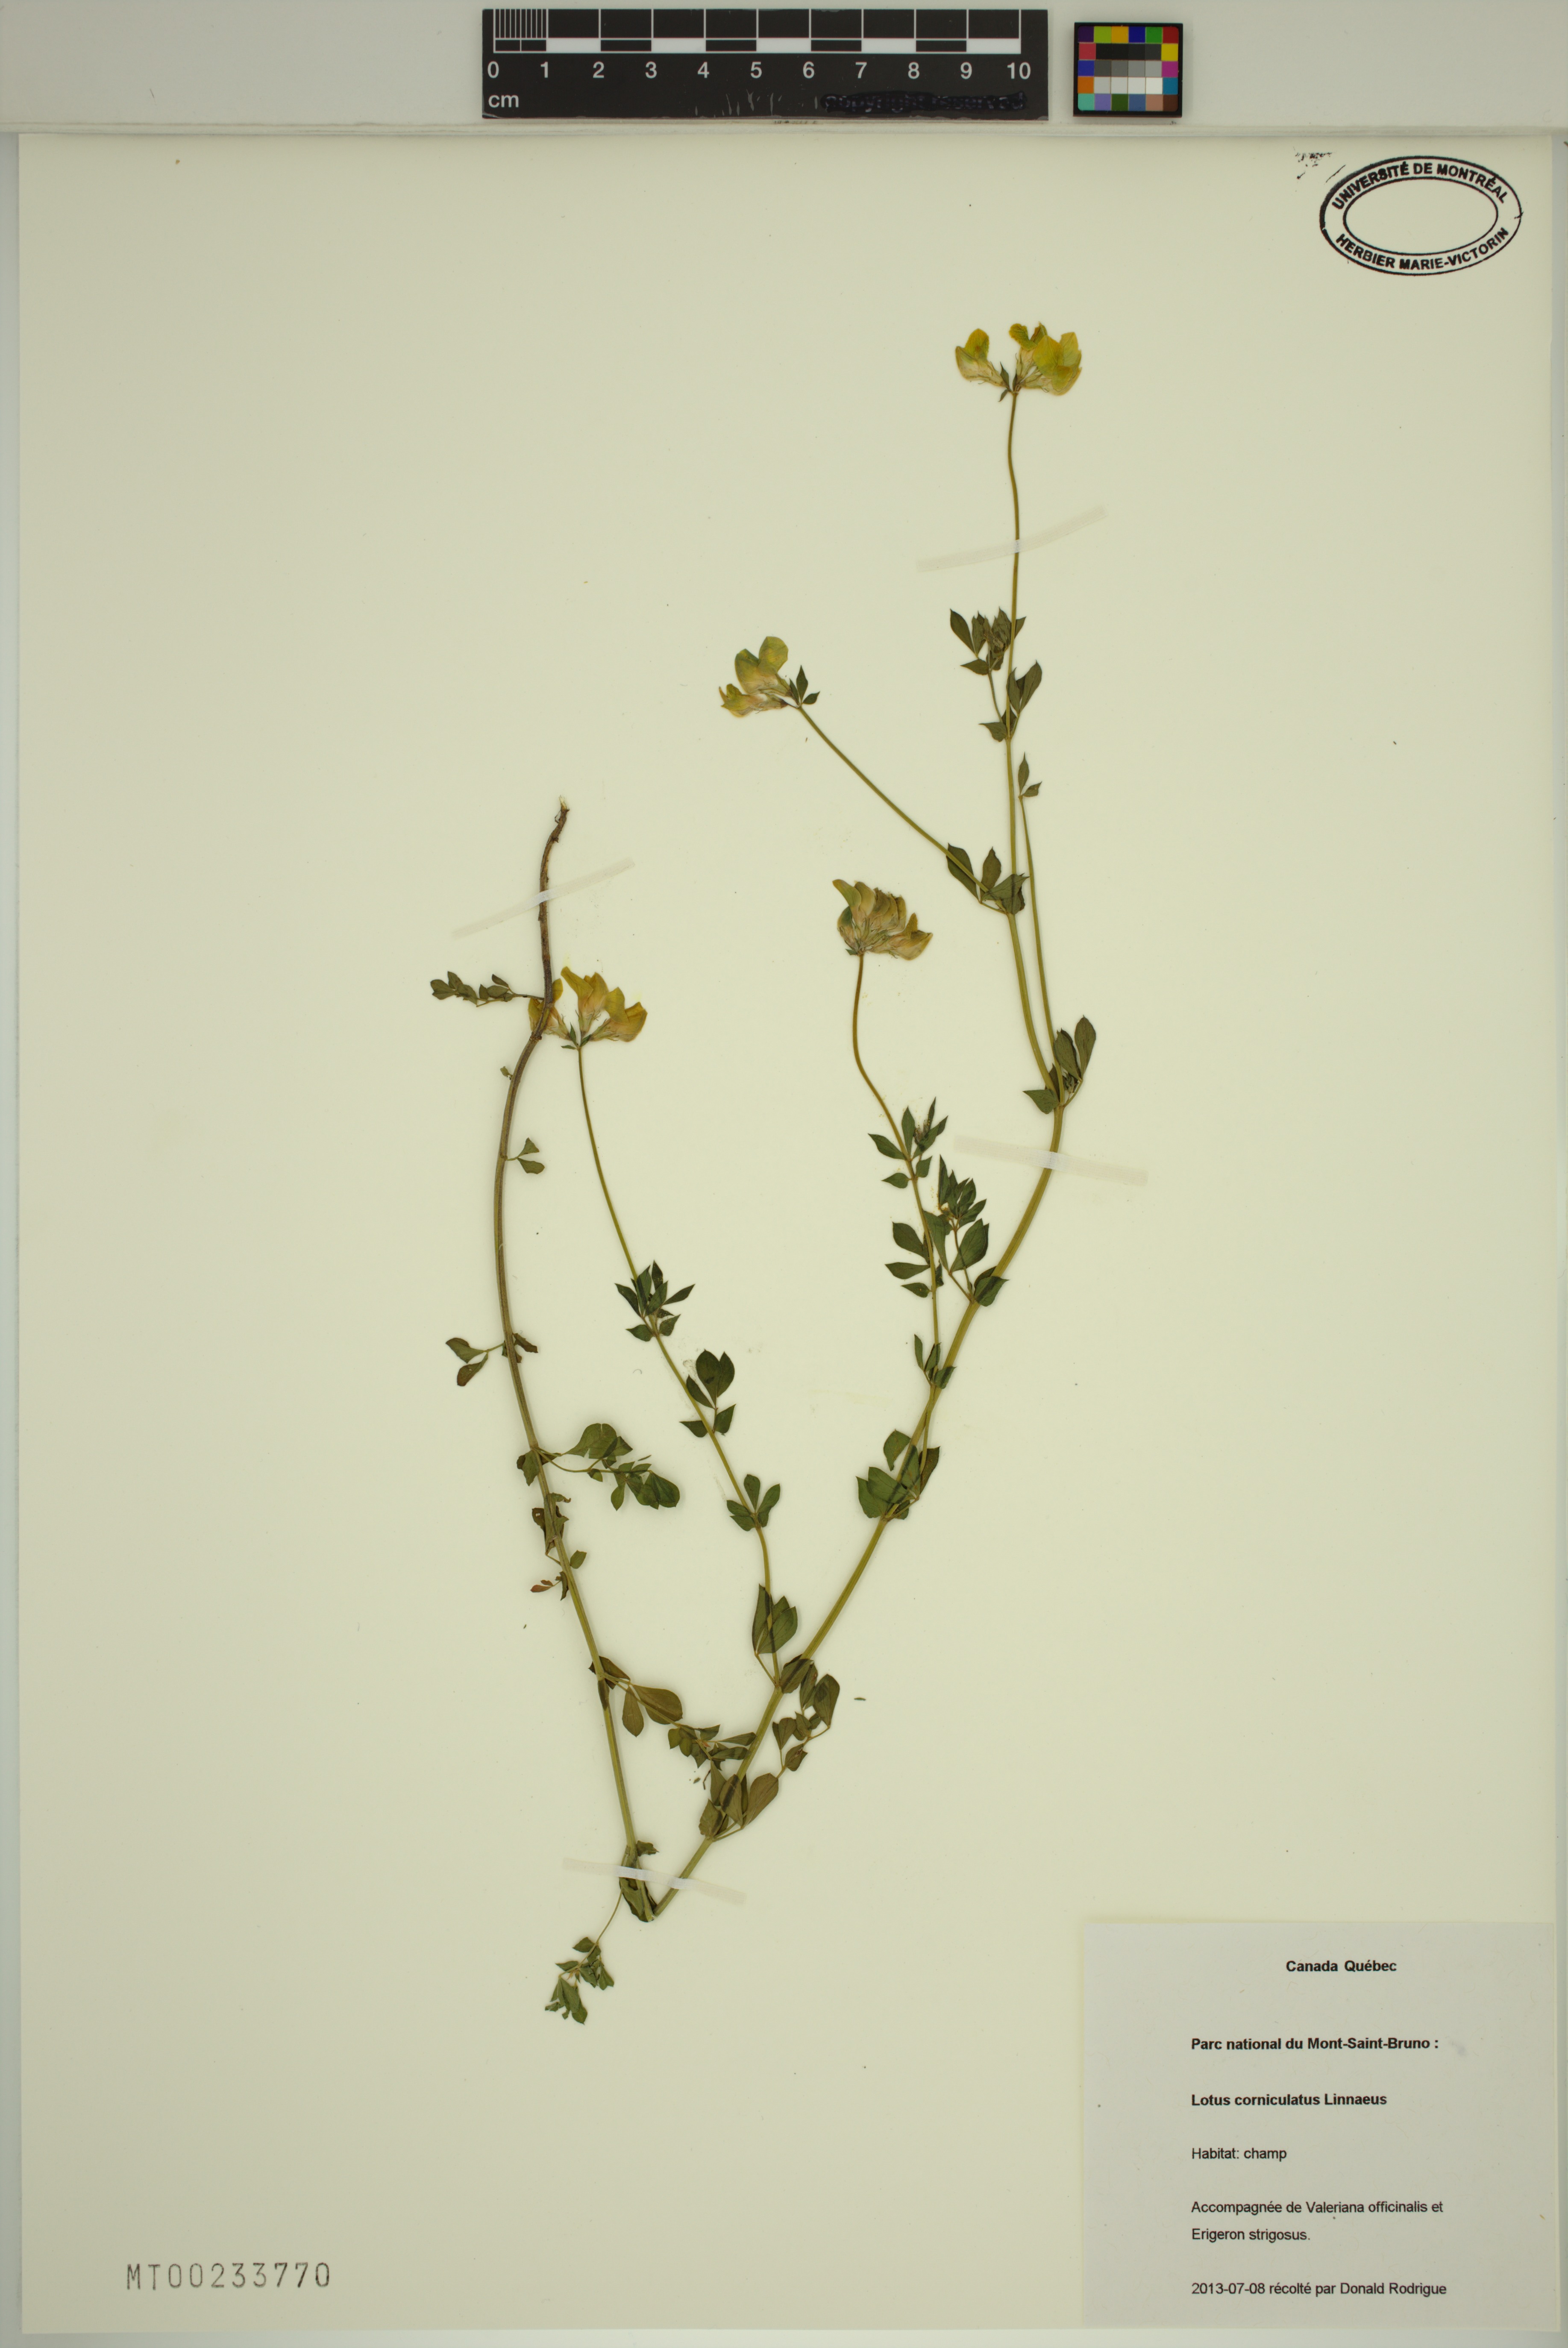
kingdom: Plantae
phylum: Tracheophyta
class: Magnoliopsida
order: Fabales
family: Fabaceae
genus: Lotus
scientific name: Lotus corniculatus
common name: Common bird's-foot-trefoil
